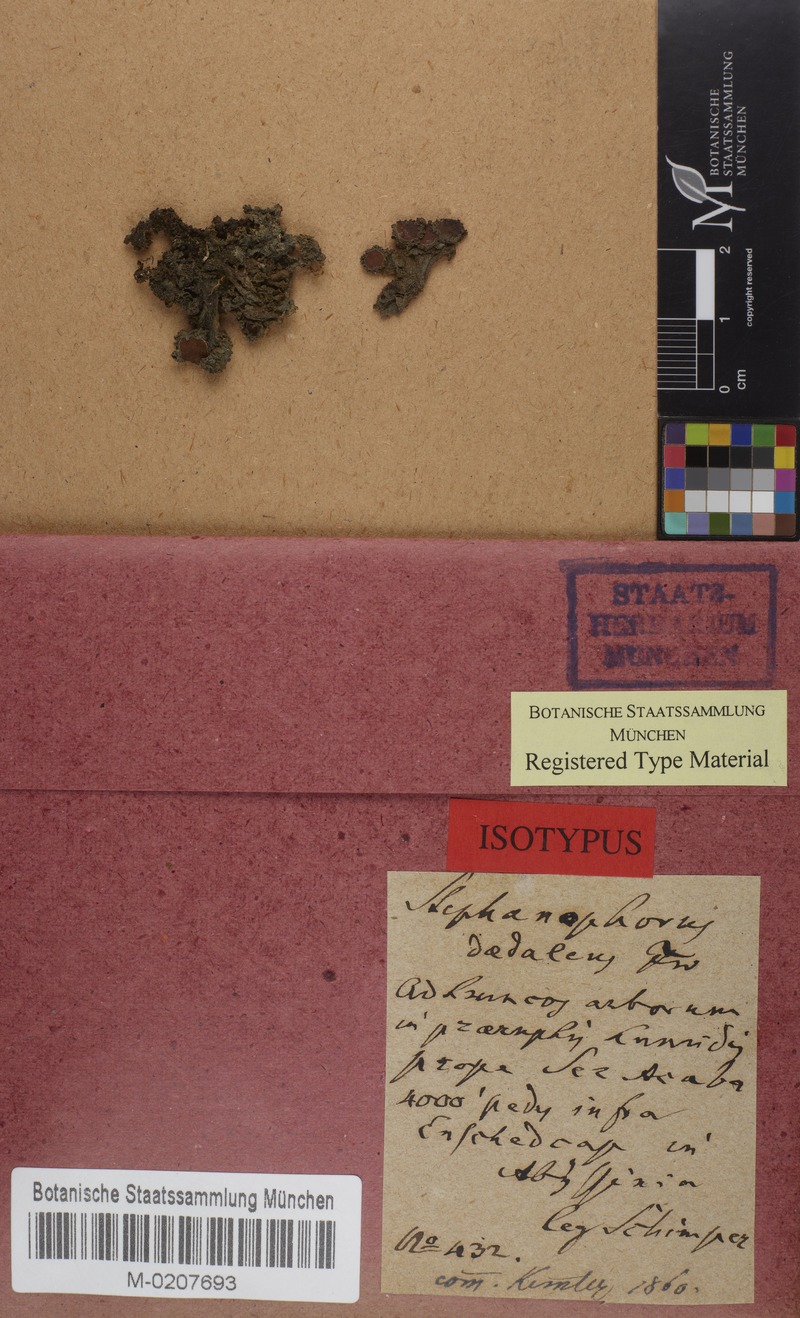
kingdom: Fungi
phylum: Ascomycota
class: Lecanoromycetes
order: Peltigerales
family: Collemataceae
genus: Leptogium
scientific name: Leptogium daedalum
